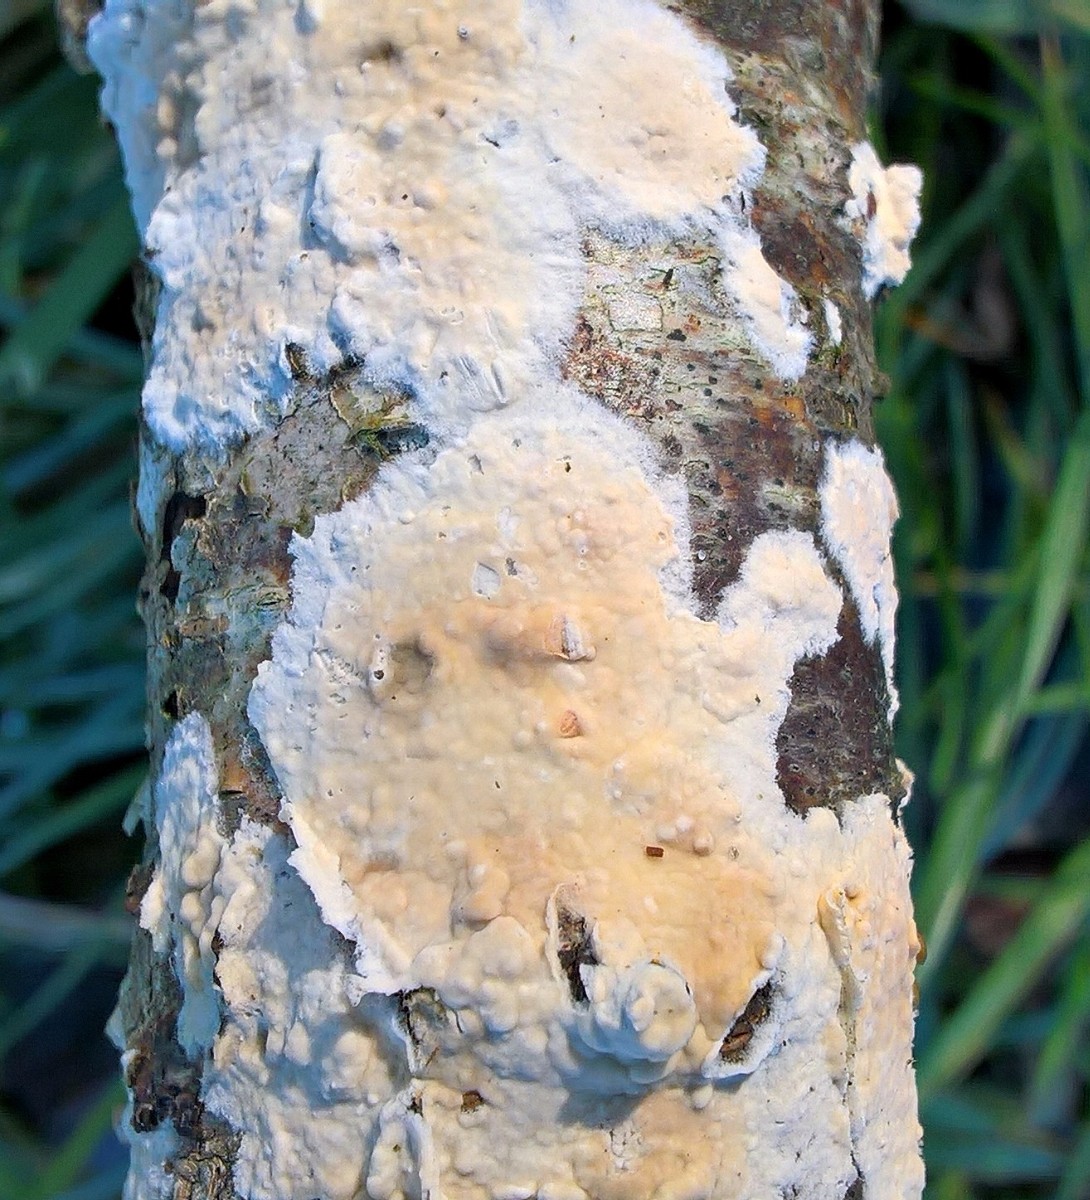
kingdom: Fungi
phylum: Basidiomycota
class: Agaricomycetes
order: Agaricales
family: Physalacriaceae
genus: Cylindrobasidium
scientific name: Cylindrobasidium evolvens
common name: sprækkehinde
